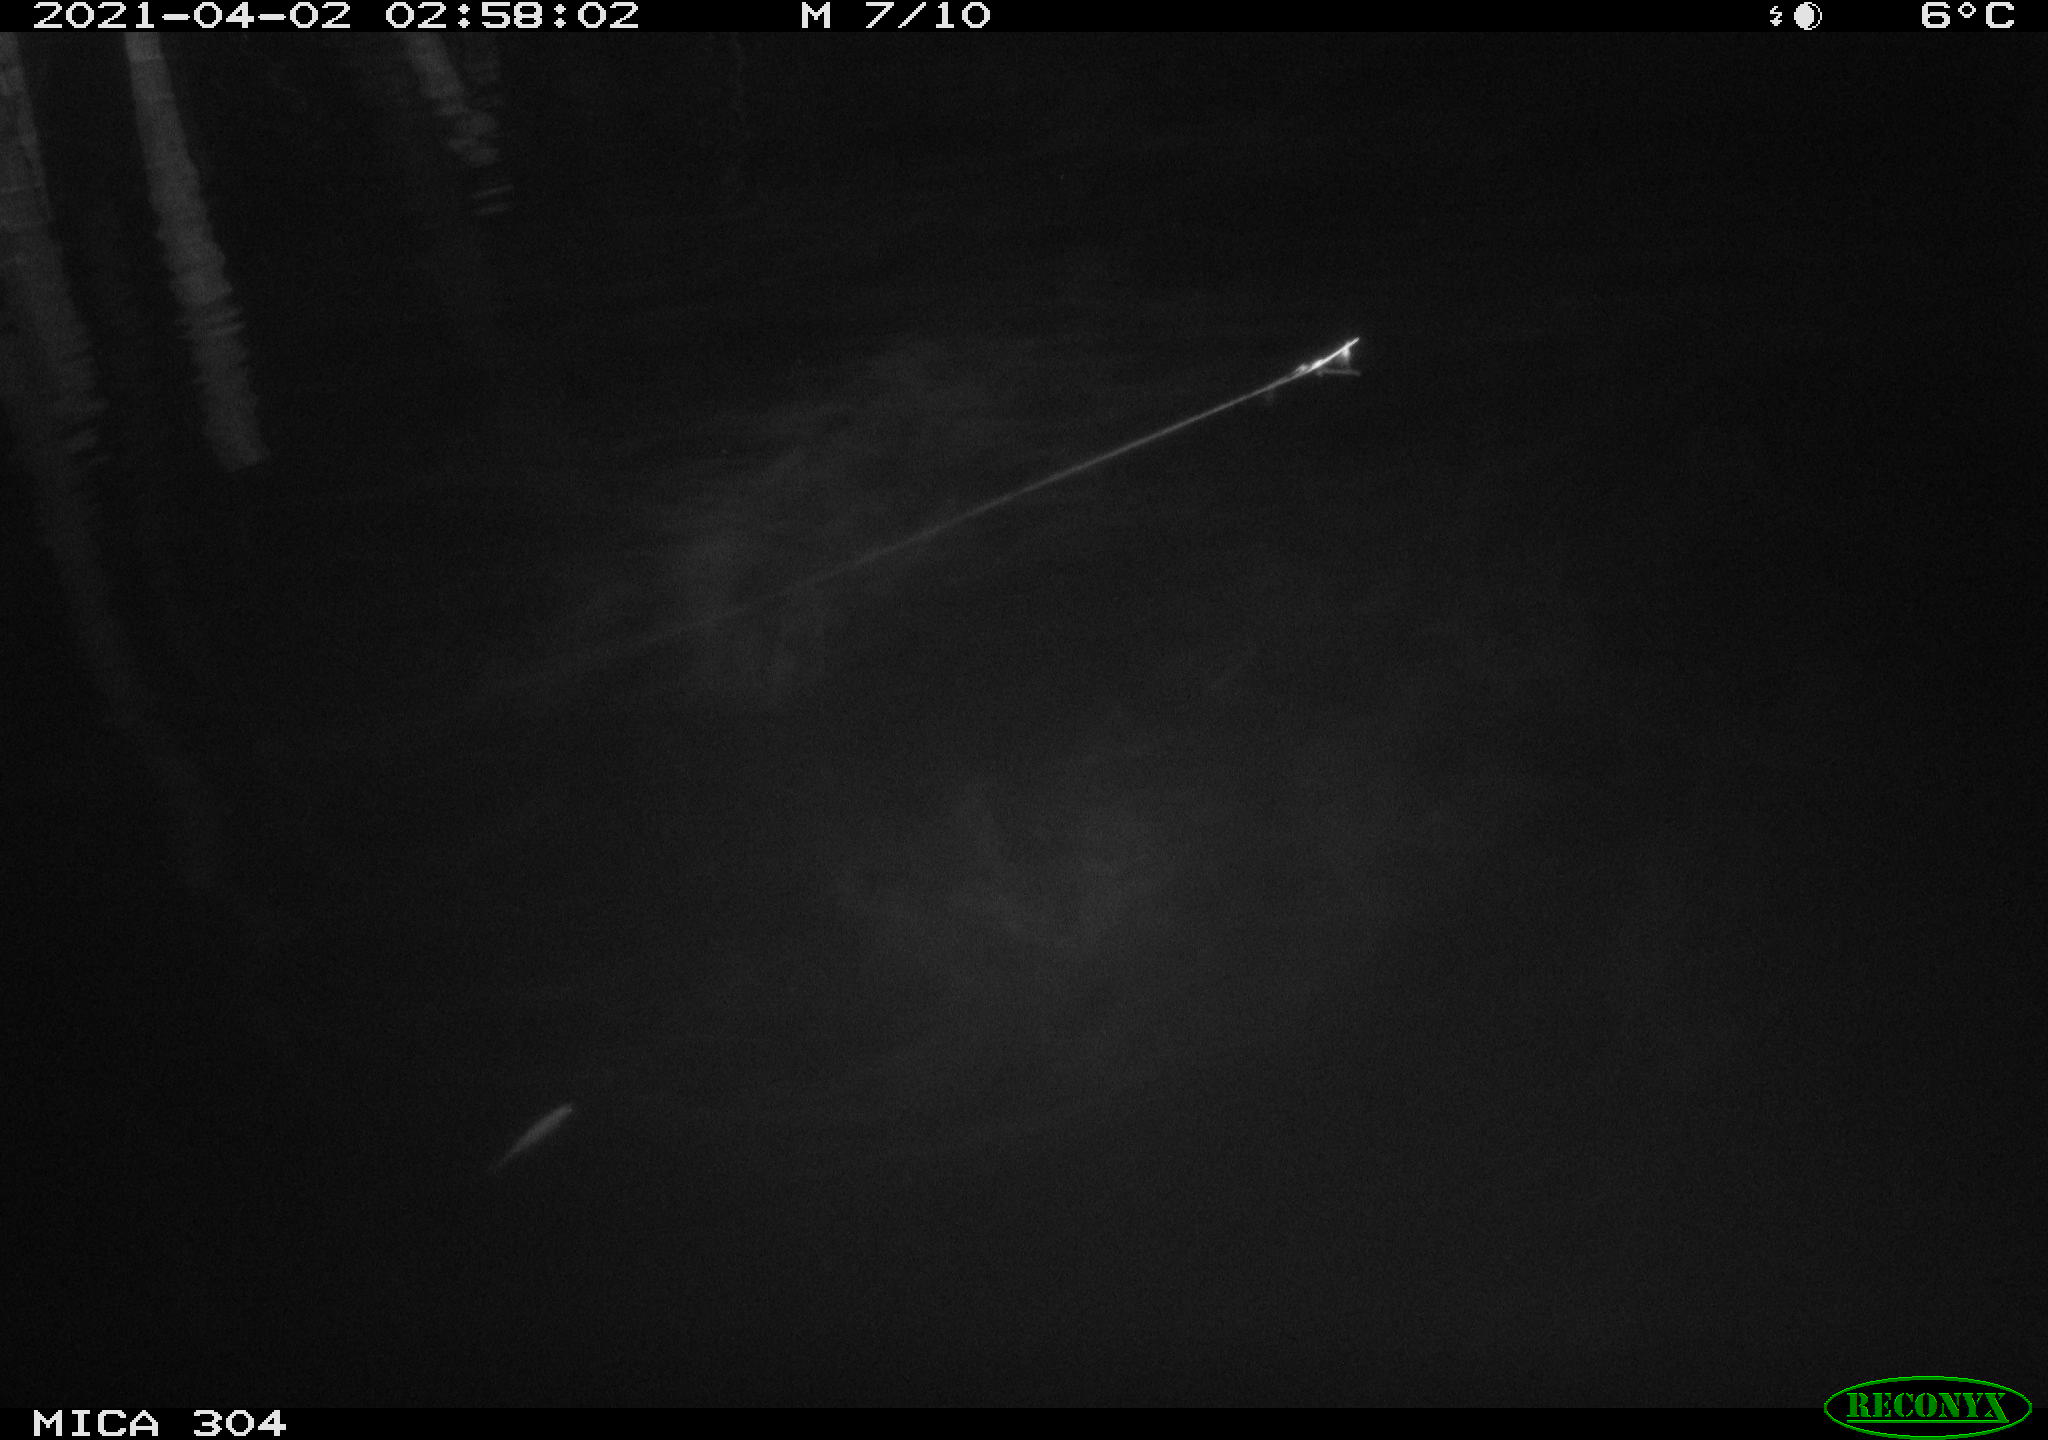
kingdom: Animalia
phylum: Chordata
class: Aves
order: Anseriformes
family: Anatidae
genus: Anas
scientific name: Anas
